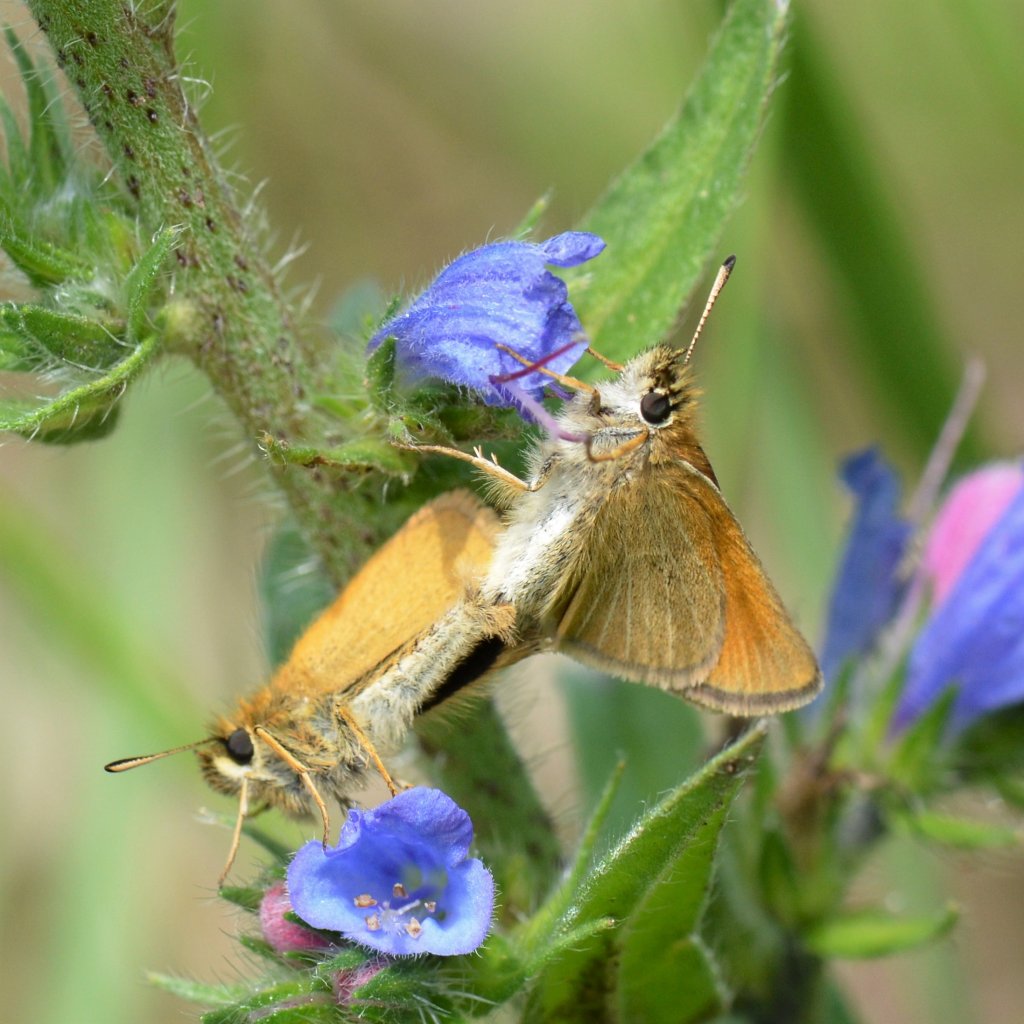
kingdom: Animalia
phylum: Arthropoda
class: Insecta
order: Lepidoptera
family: Hesperiidae
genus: Thymelicus
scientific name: Thymelicus lineola
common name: European Skipper
